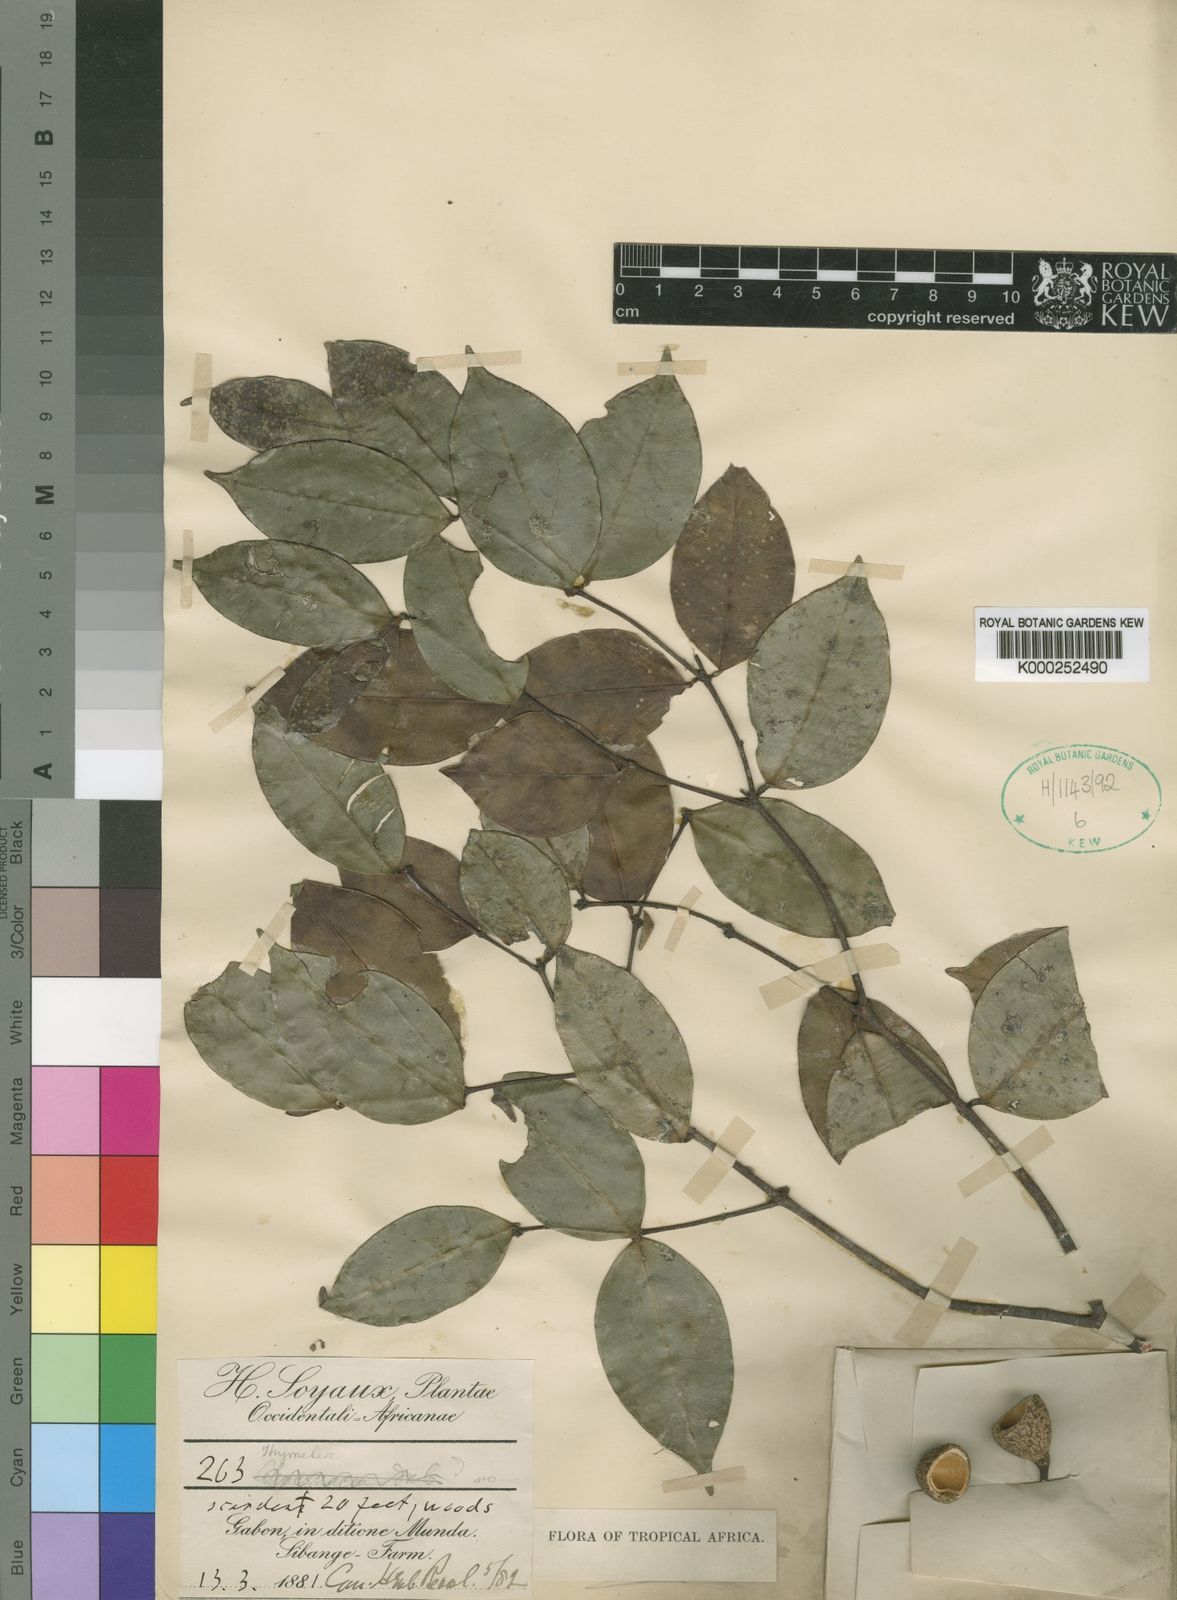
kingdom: Plantae
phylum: Tracheophyta
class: Magnoliopsida
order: Malvales
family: Thymelaeaceae
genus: Synaptolepis
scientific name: Synaptolepis
